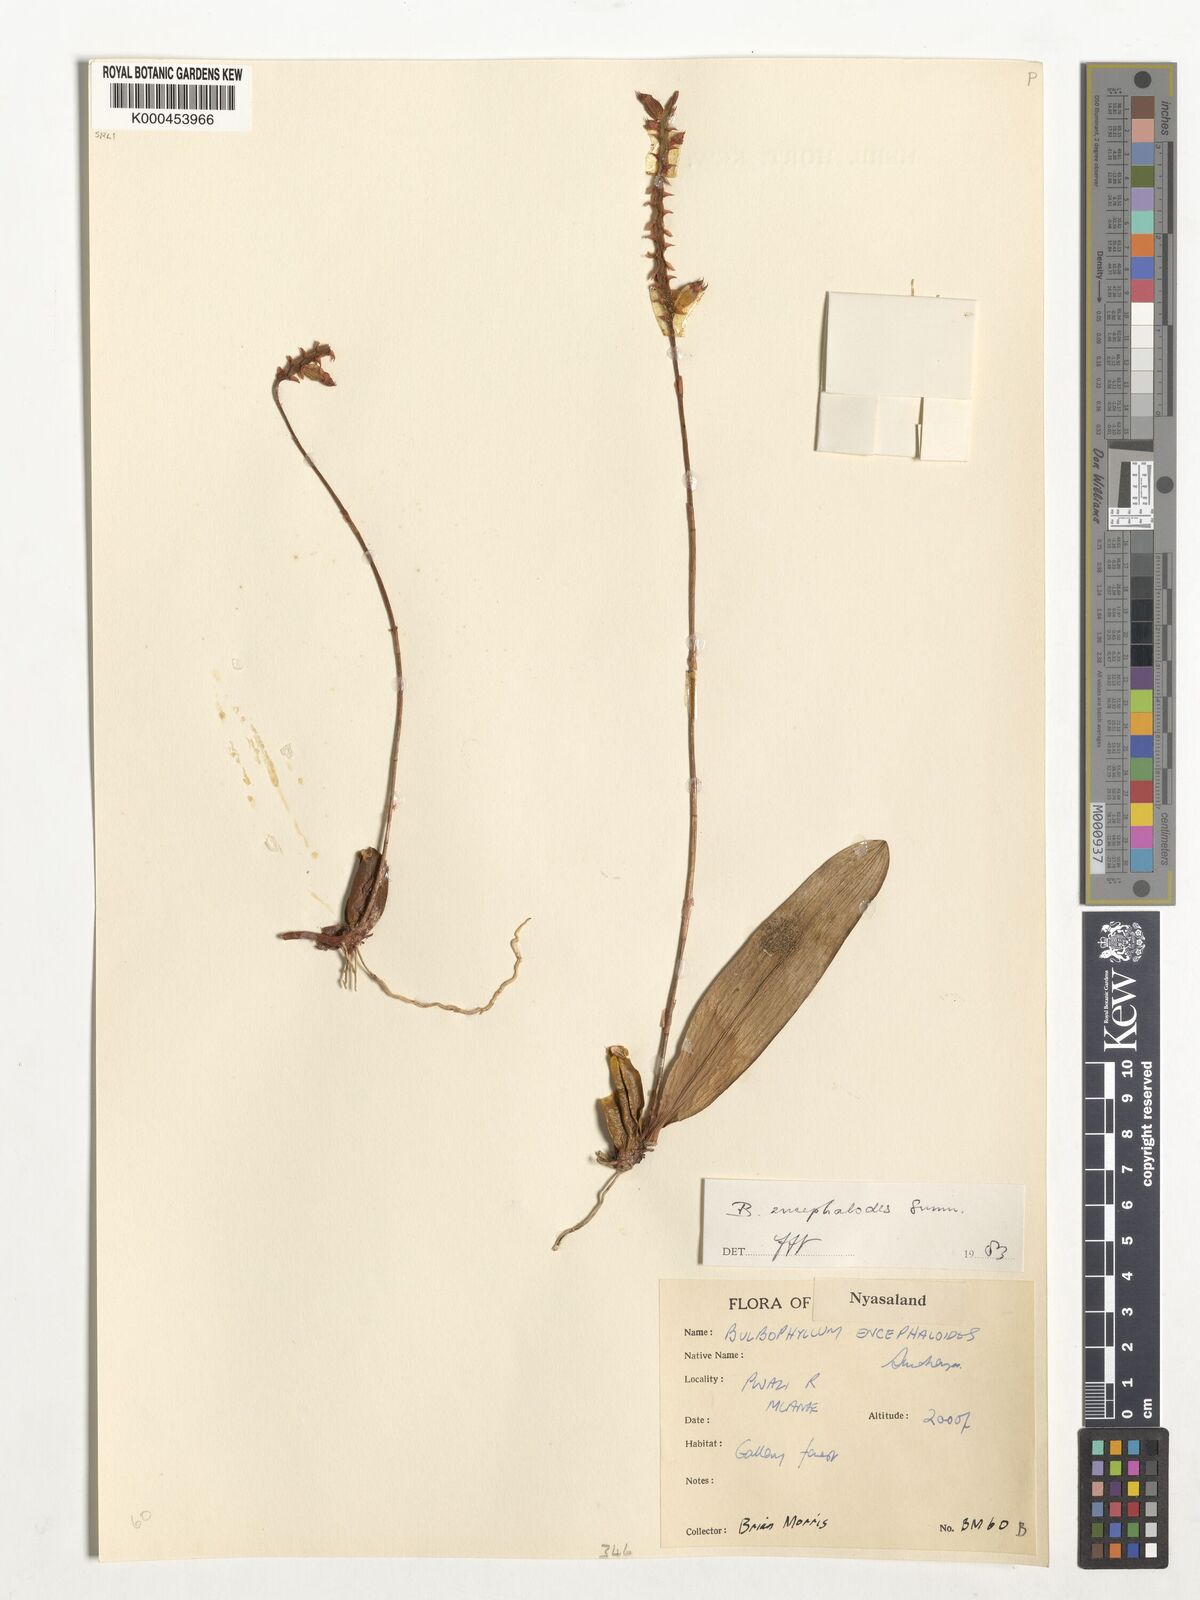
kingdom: Plantae
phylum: Tracheophyta
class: Liliopsida
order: Asparagales
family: Orchidaceae
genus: Bulbophyllum
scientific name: Bulbophyllum encephalodes
